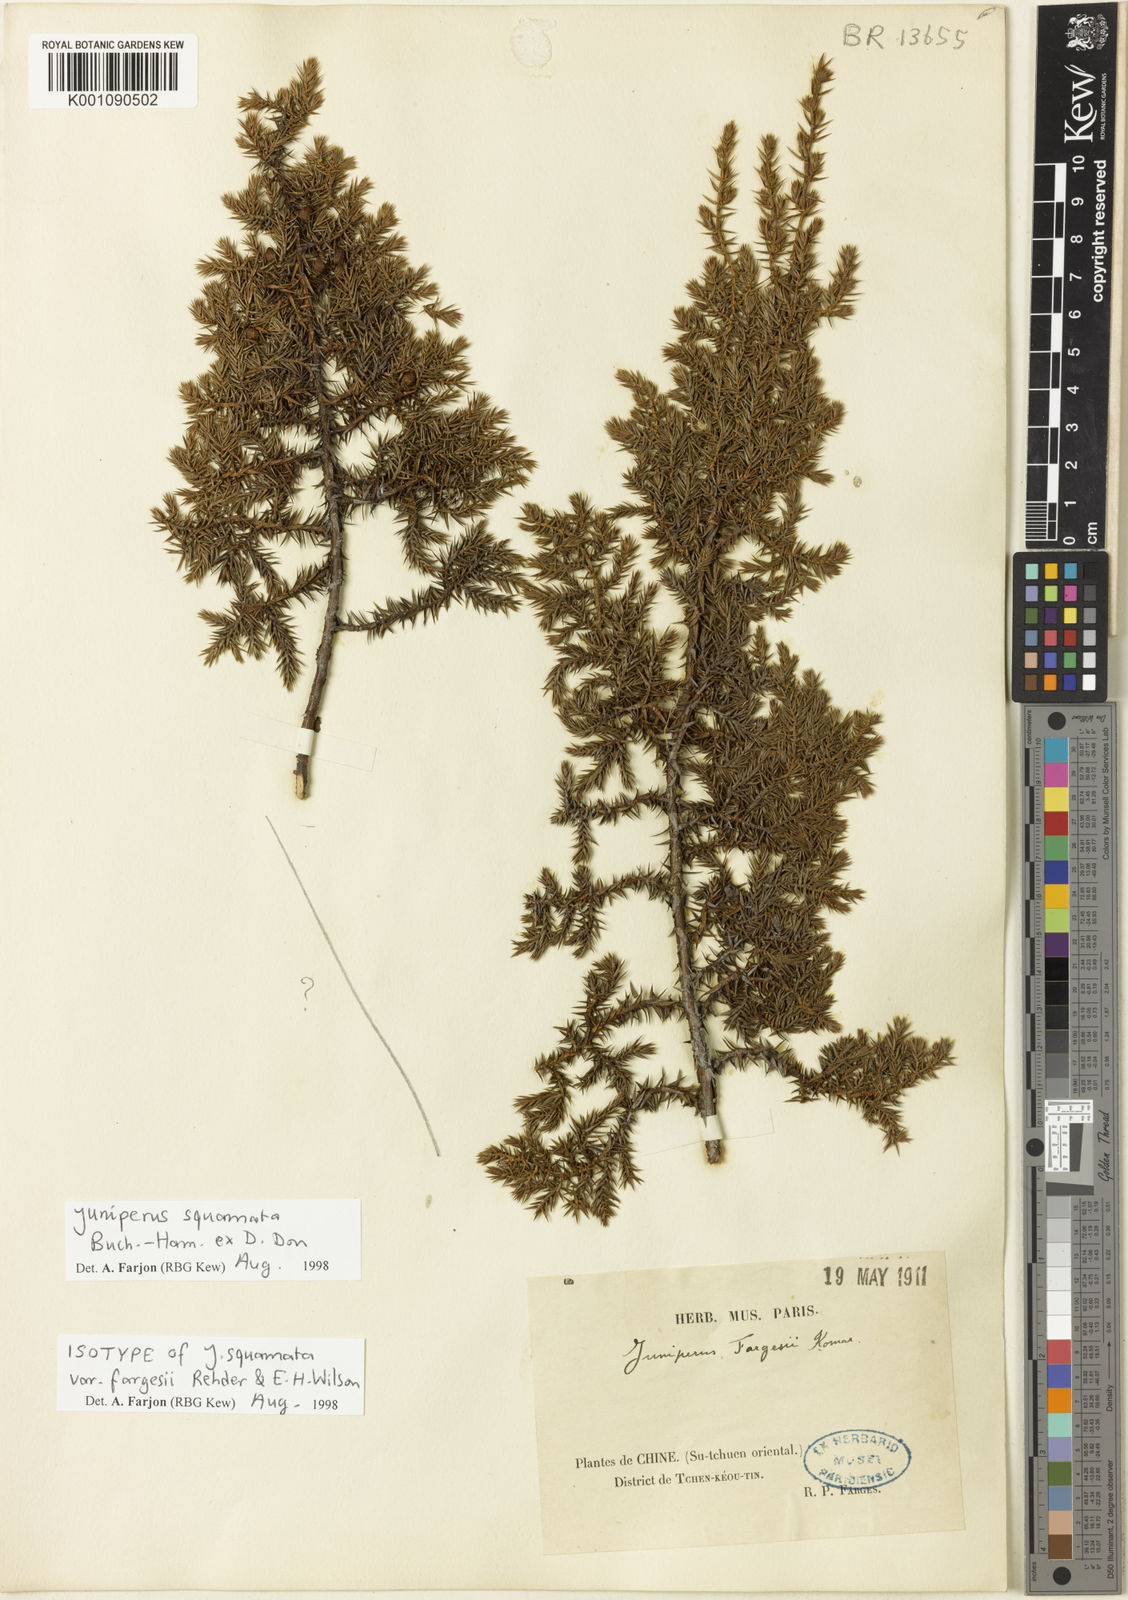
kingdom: Plantae
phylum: Tracheophyta
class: Pinopsida
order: Pinales
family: Cupressaceae
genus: Juniperus
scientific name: Juniperus squamata
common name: Flaky juniper
